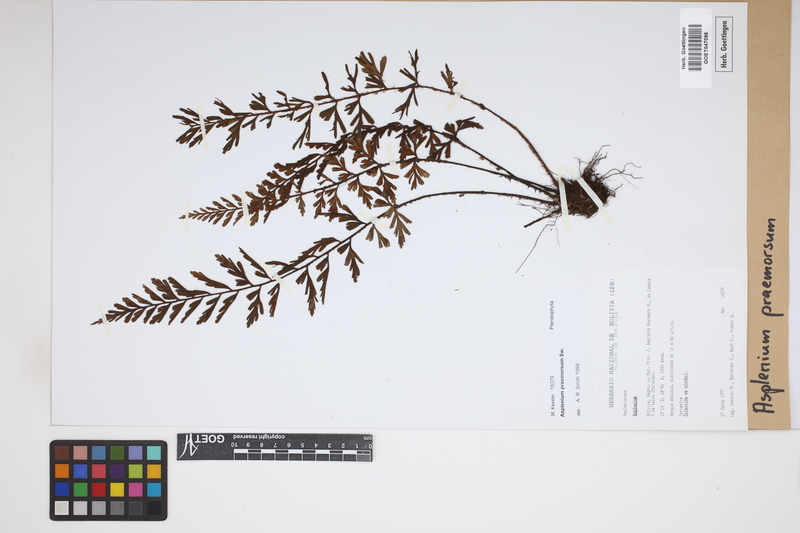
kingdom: Plantae
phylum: Tracheophyta
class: Polypodiopsida
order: Polypodiales
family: Aspleniaceae
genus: Asplenium
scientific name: Asplenium praemorsum
